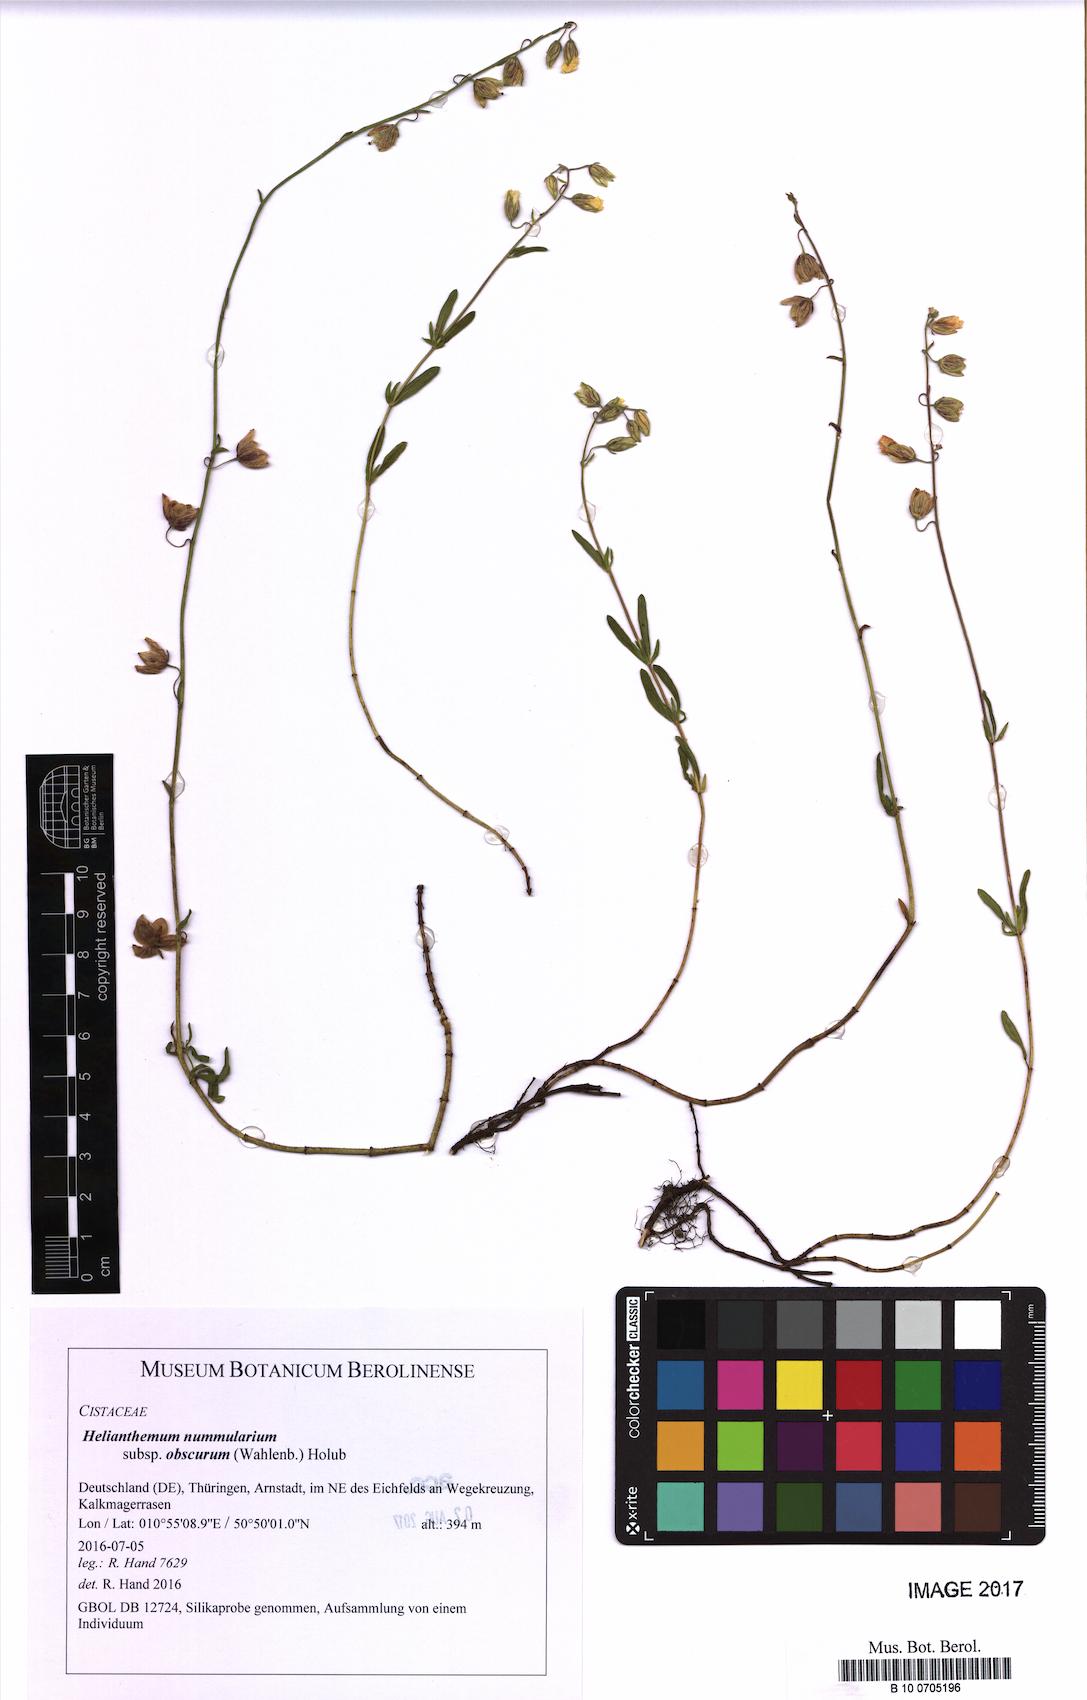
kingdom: Plantae
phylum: Tracheophyta
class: Magnoliopsida
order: Malvales
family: Cistaceae
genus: Helianthemum
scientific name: Helianthemum nummularium
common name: Common rock-rose
